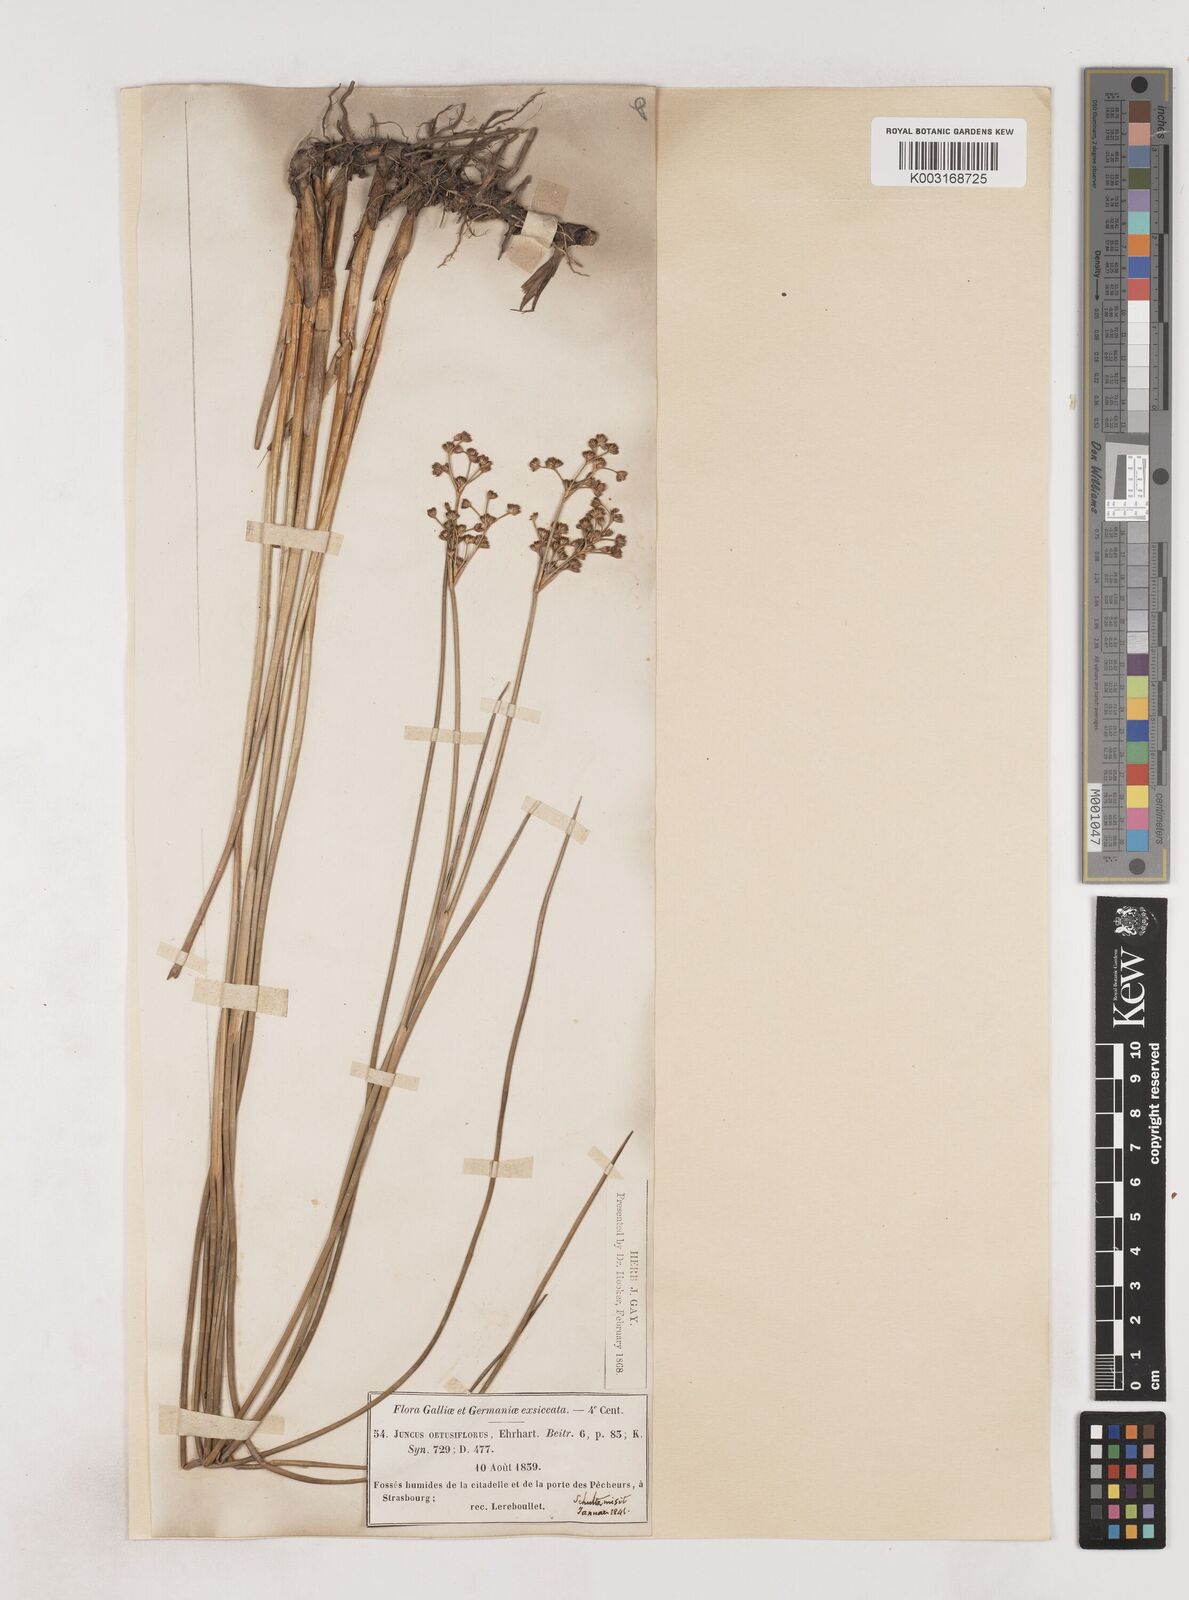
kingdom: Plantae
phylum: Tracheophyta
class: Liliopsida
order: Poales
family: Juncaceae
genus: Juncus
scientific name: Juncus subnodulosus
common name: Blunt-flowered rush
